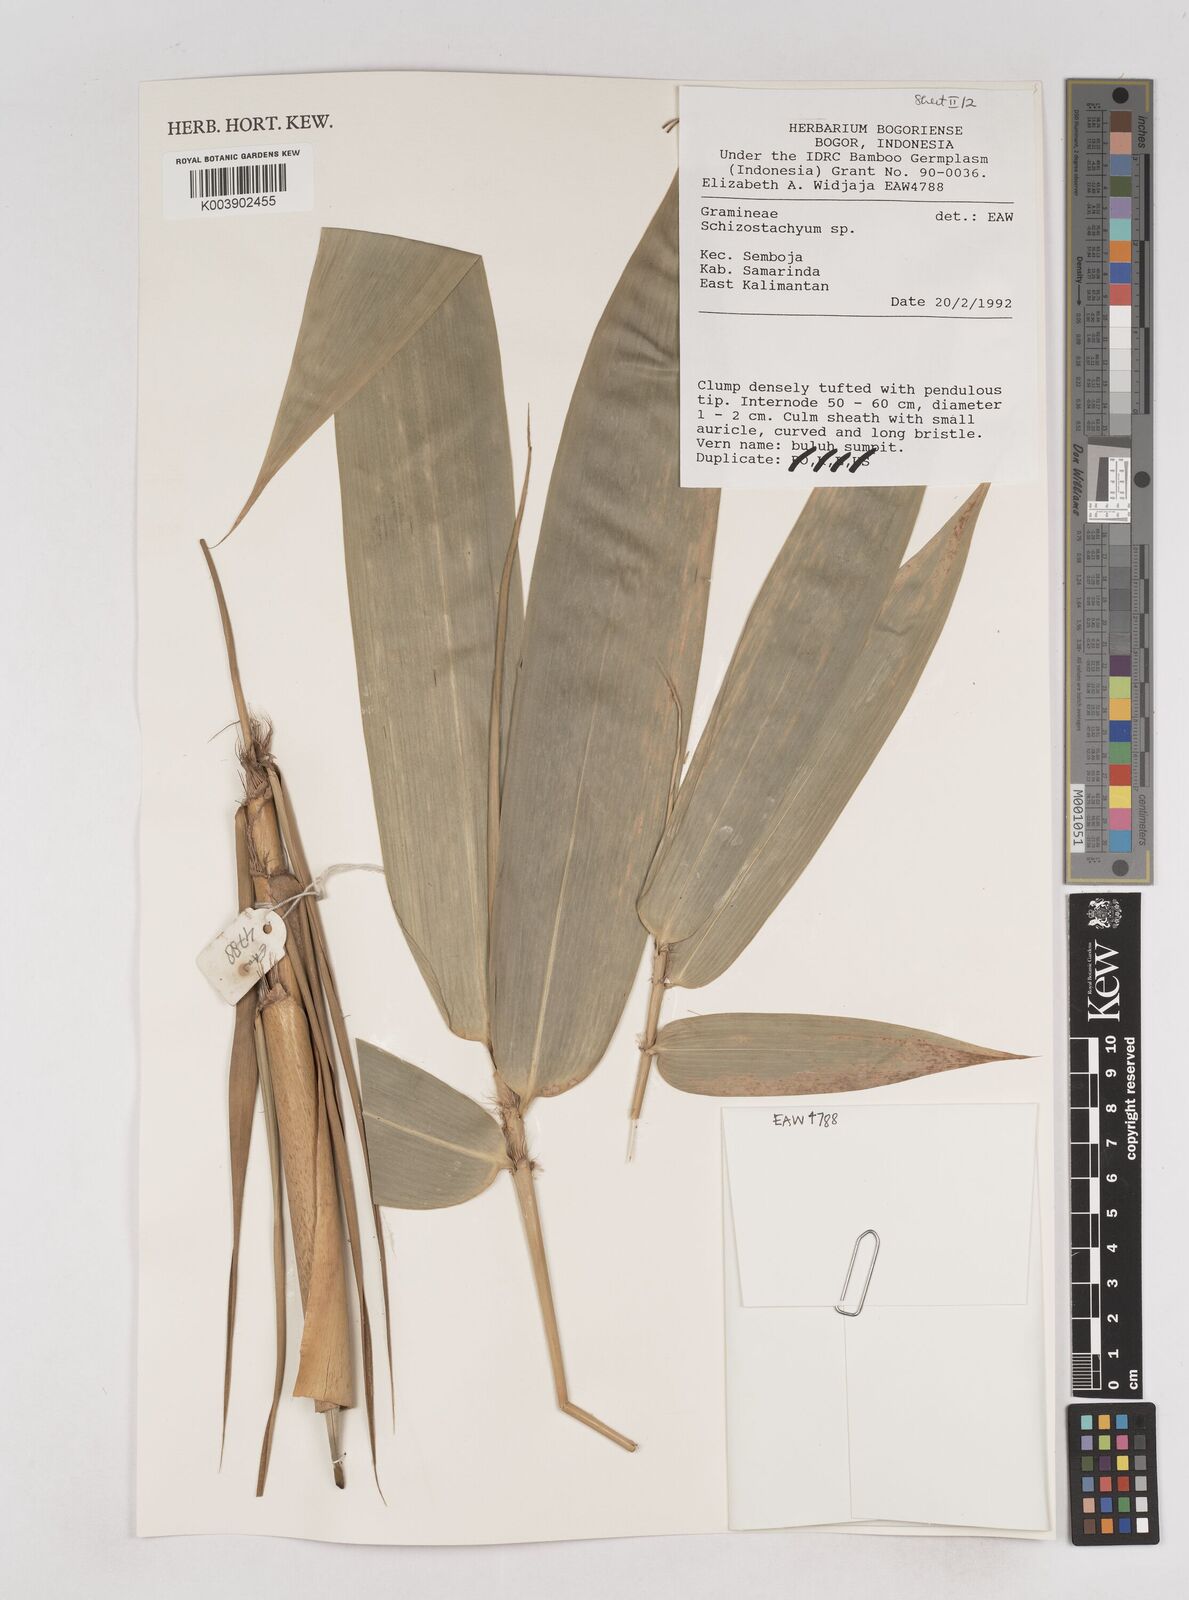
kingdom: Plantae
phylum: Tracheophyta
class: Liliopsida
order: Poales
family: Poaceae
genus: Schizostachyum
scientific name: Schizostachyum
